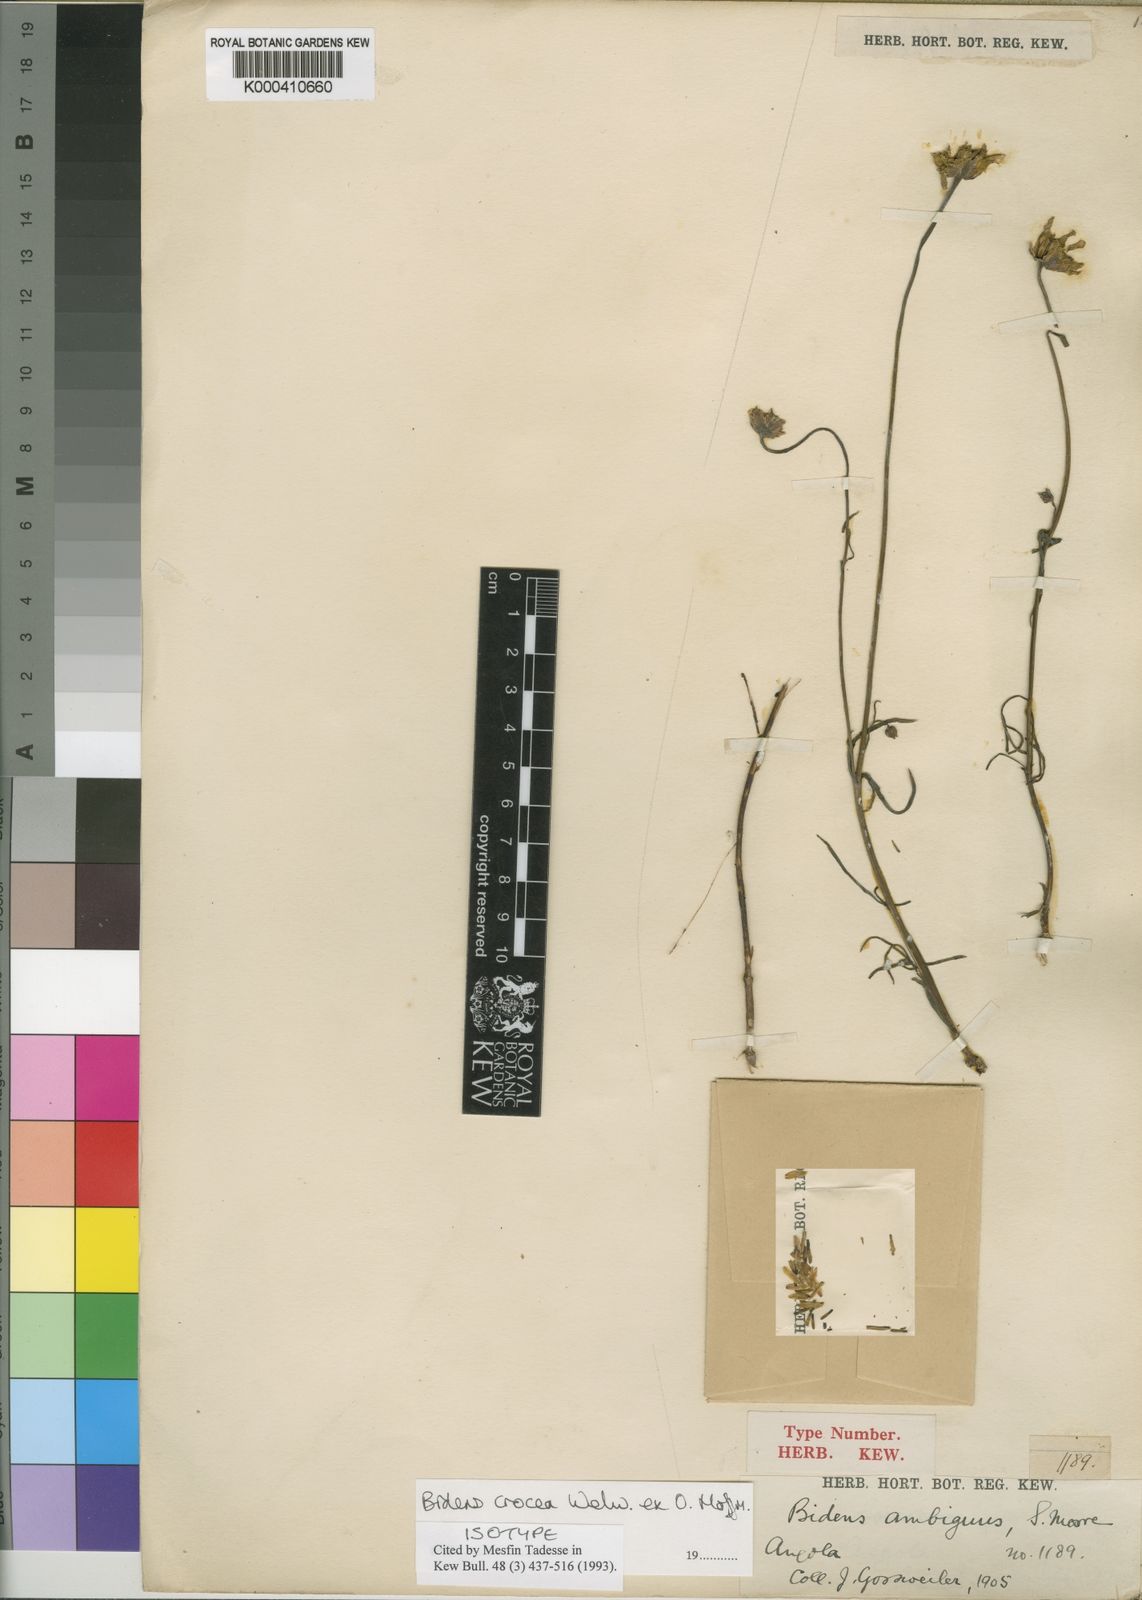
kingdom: Plantae
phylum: Tracheophyta
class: Magnoliopsida
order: Asterales
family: Asteraceae
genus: Bidens
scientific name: Bidens crocea
